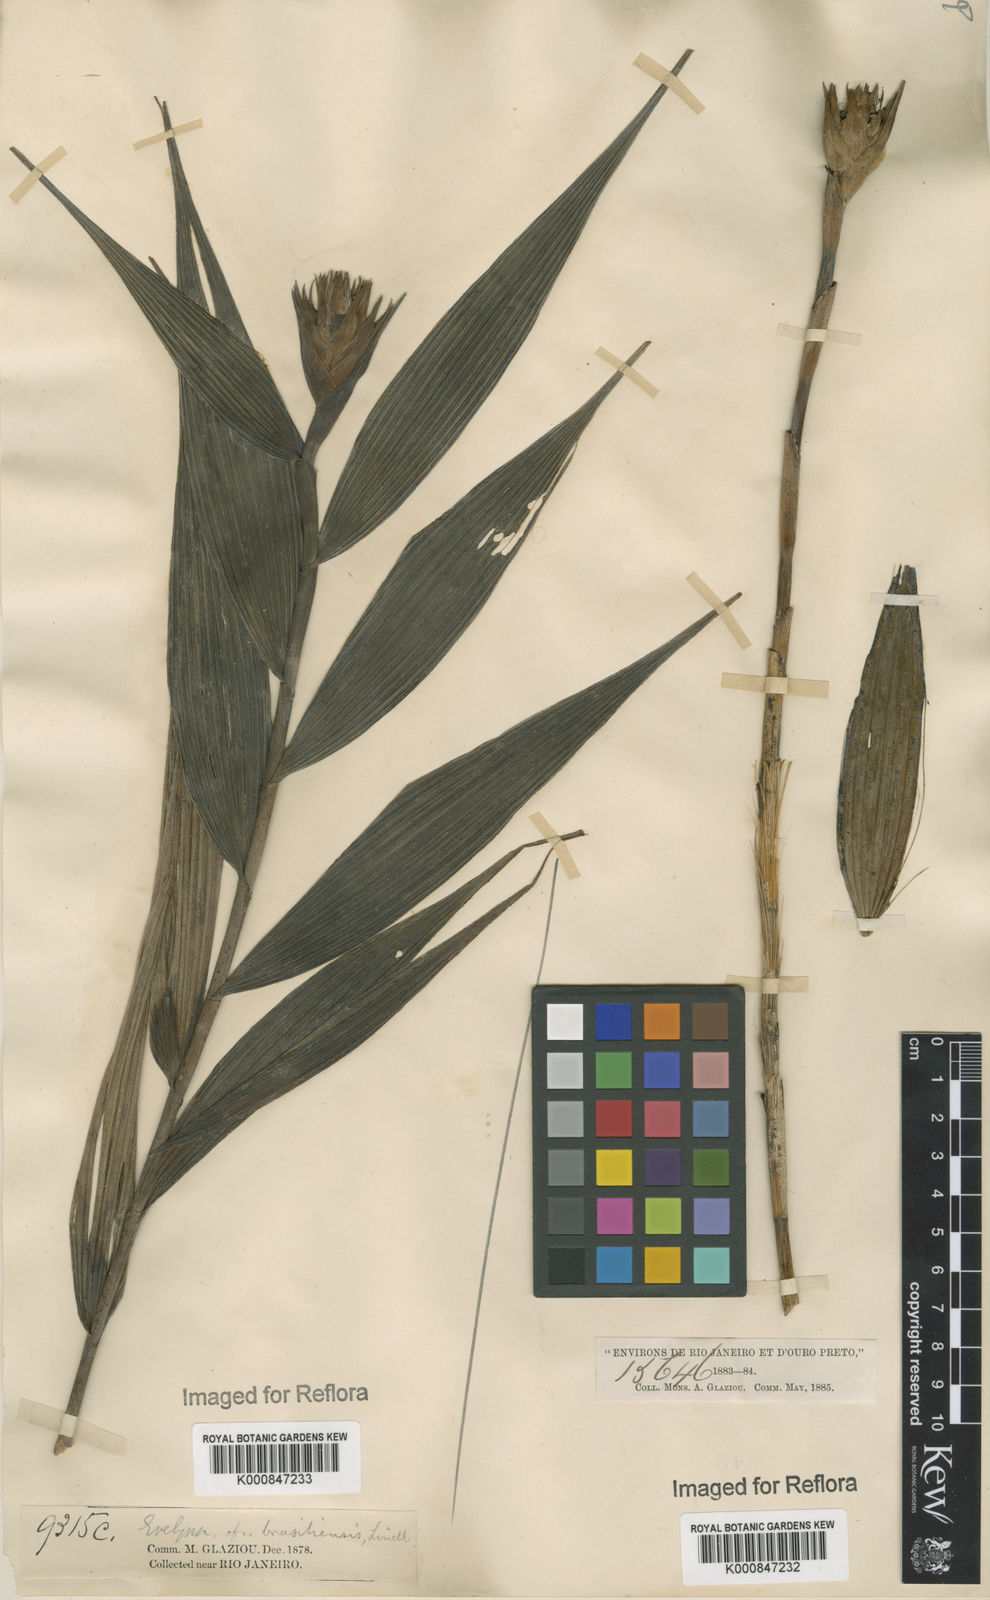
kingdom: Plantae
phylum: Tracheophyta
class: Liliopsida
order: Asparagales
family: Orchidaceae
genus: Elleanthus
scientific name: Elleanthus brasiliensis
